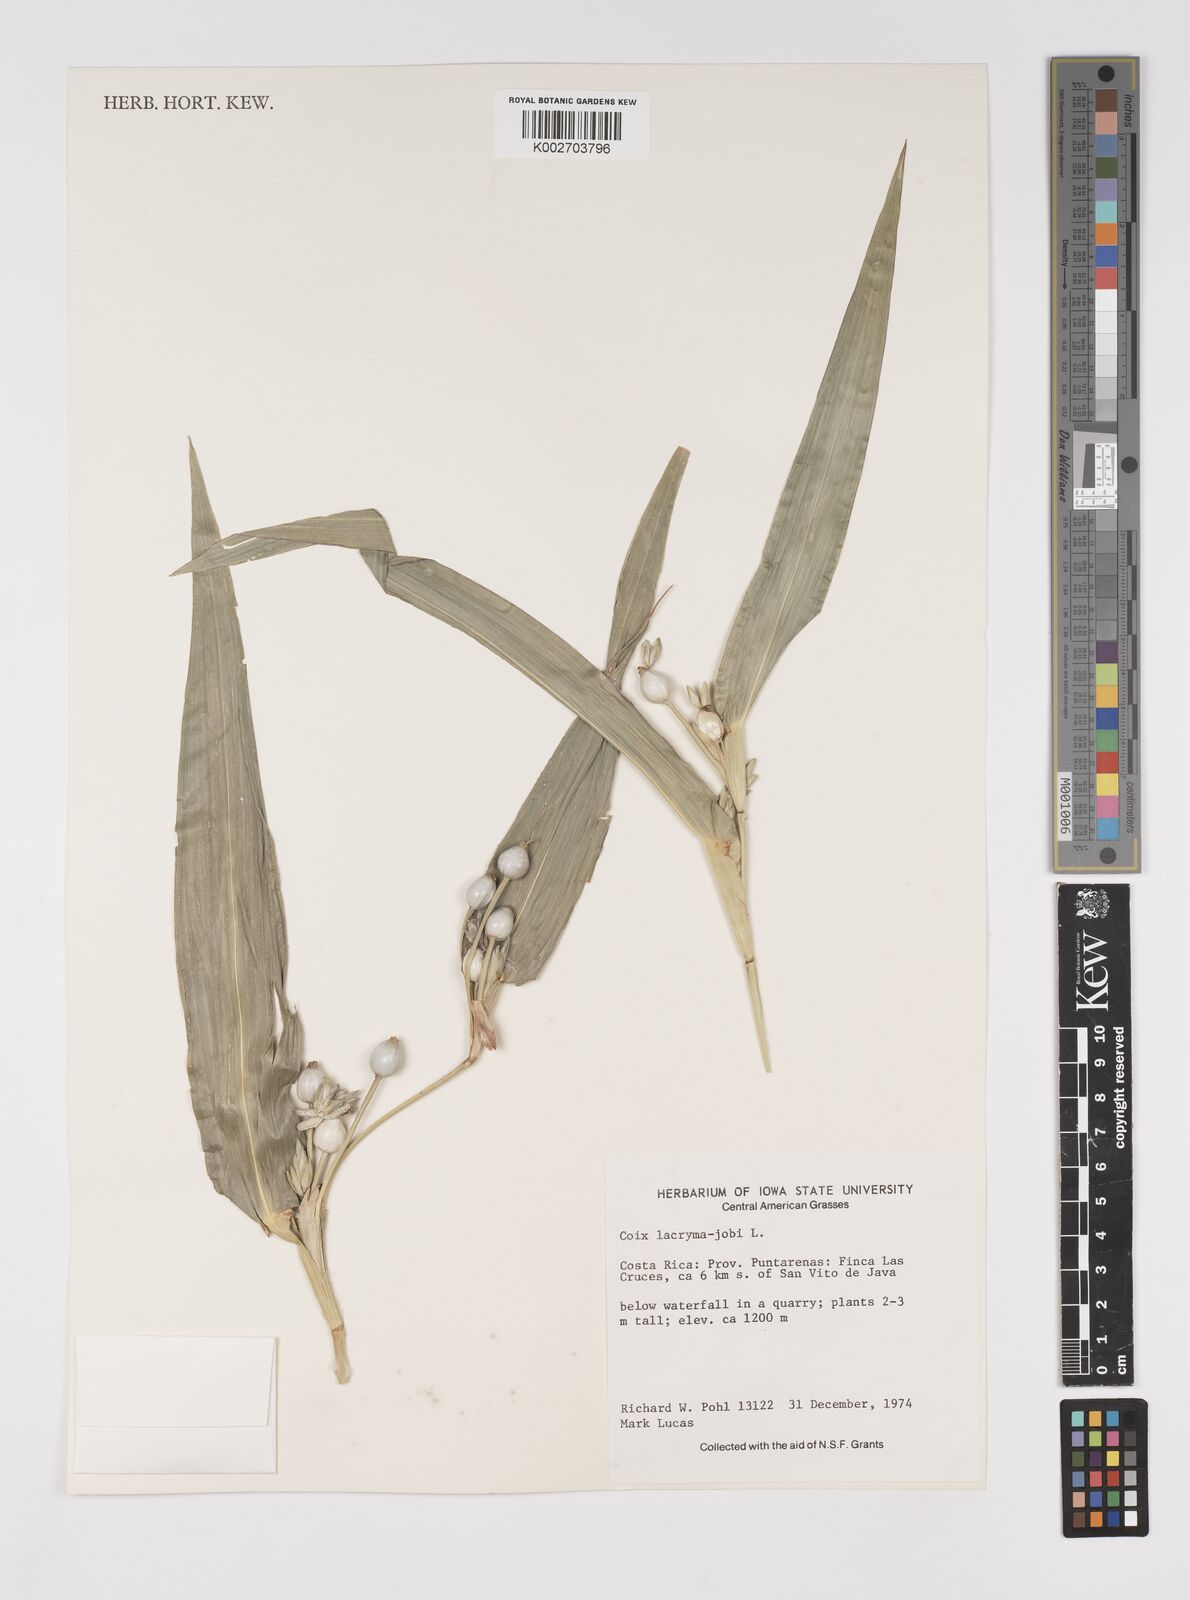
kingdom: Plantae
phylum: Tracheophyta
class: Liliopsida
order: Poales
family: Poaceae
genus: Coix
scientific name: Coix lacryma-jobi
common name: Job's tears
